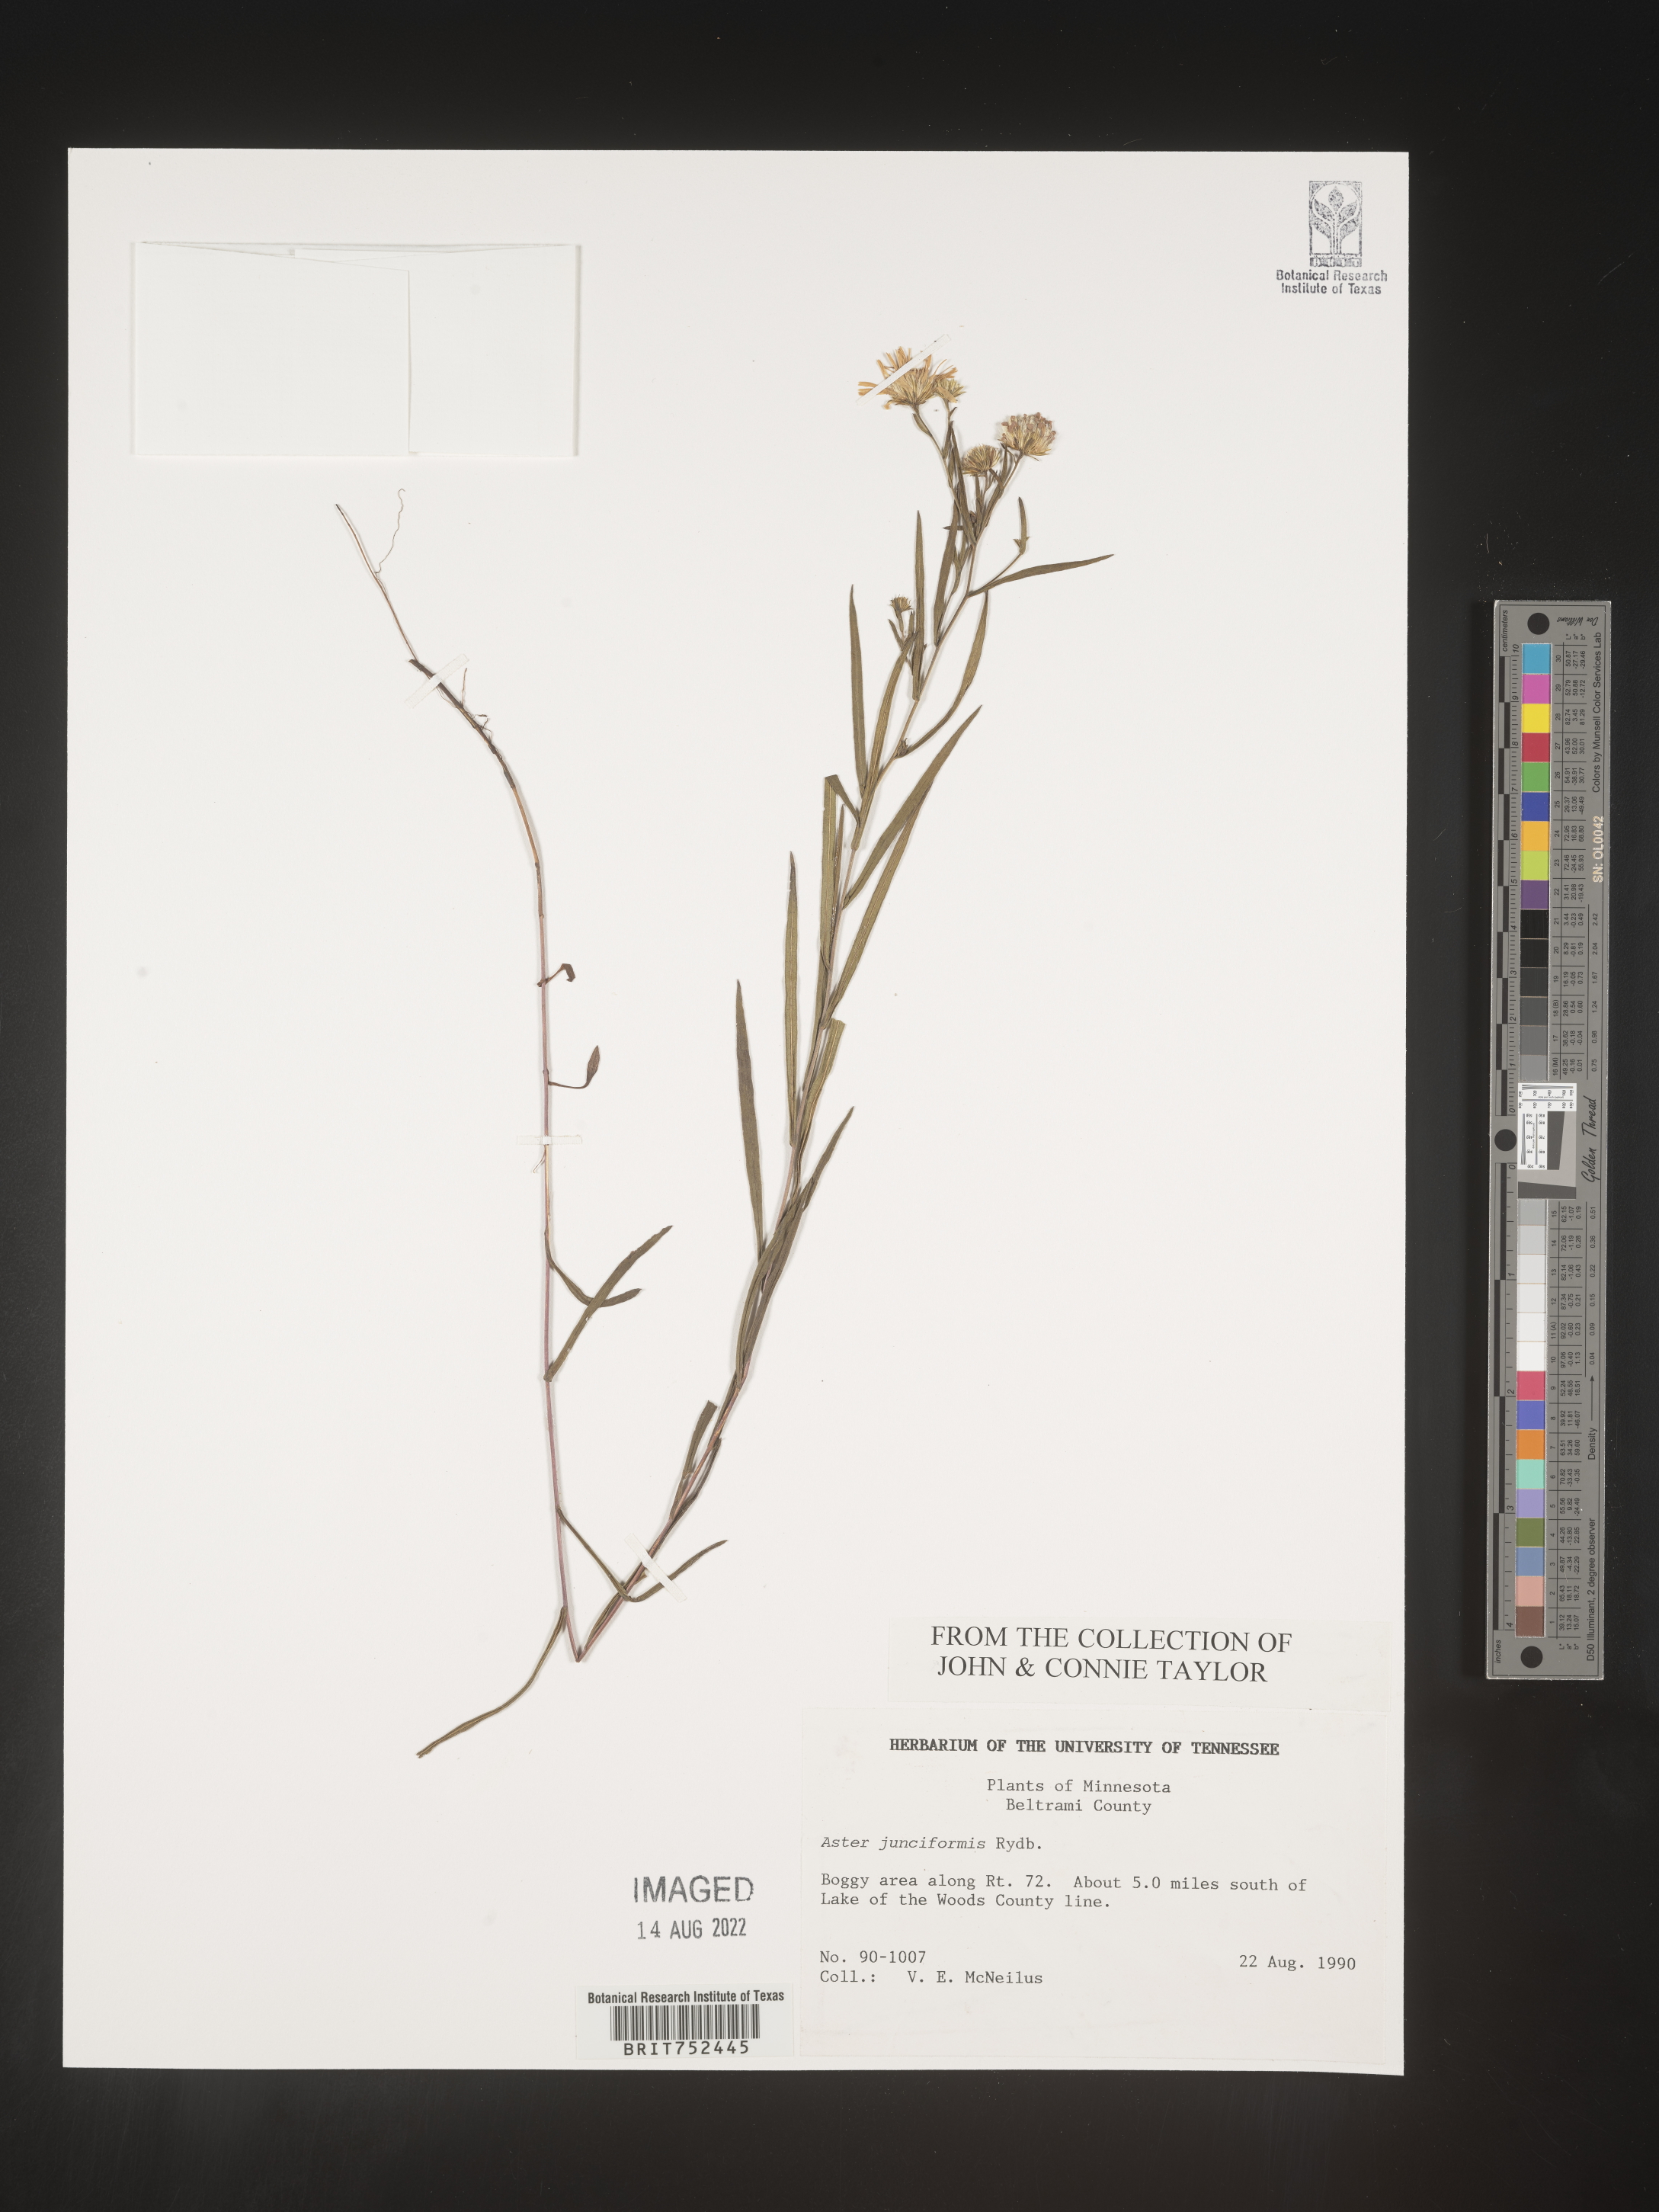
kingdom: Plantae
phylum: Tracheophyta
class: Magnoliopsida
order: Asterales
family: Asteraceae
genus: Symphyotrichum
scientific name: Symphyotrichum boreale
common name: Northern bog aster
